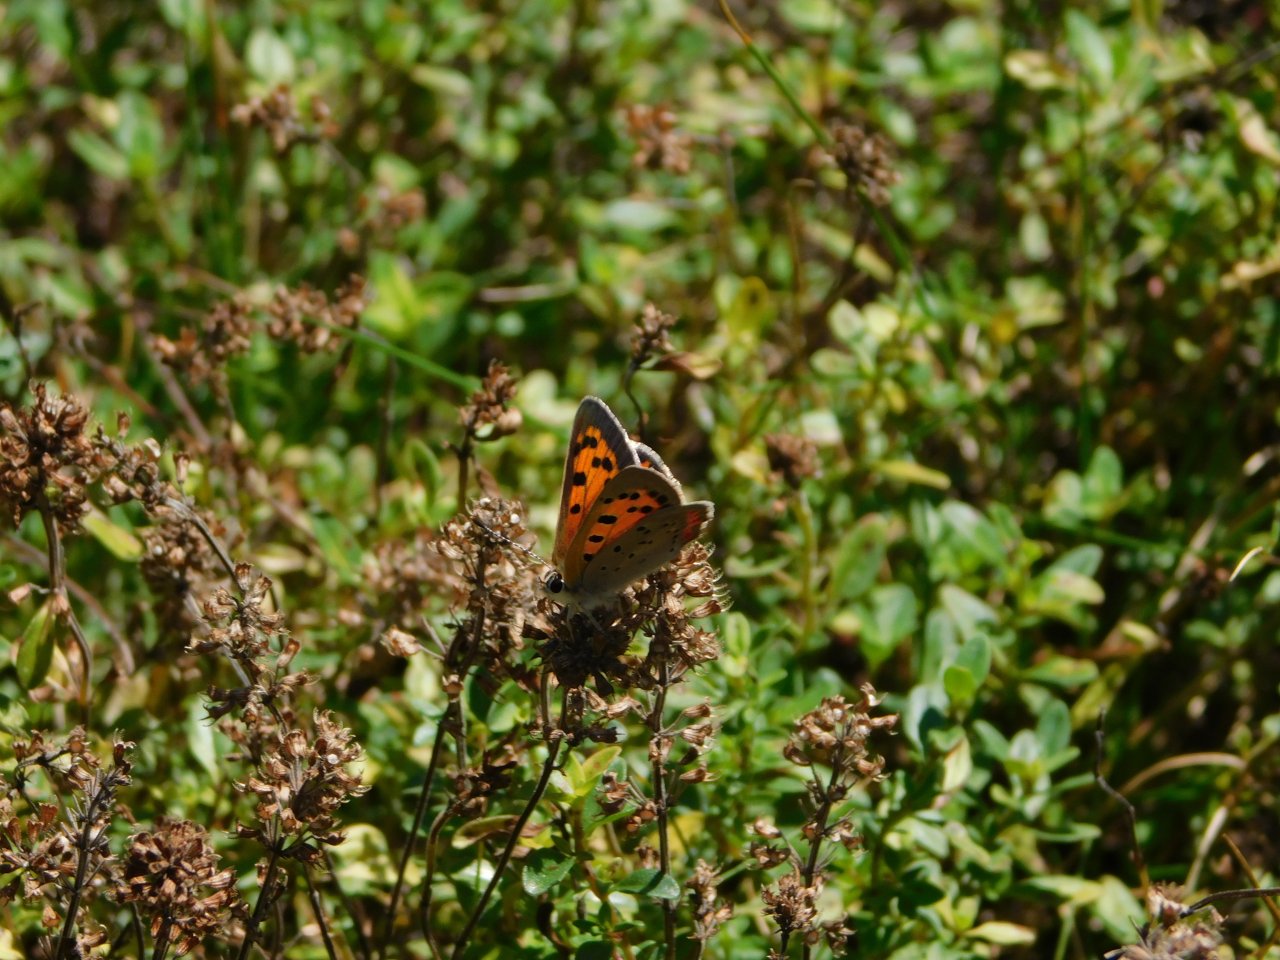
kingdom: Animalia
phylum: Arthropoda
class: Insecta
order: Lepidoptera
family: Lycaenidae
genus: Lycaena
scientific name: Lycaena phlaeas
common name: American Copper
